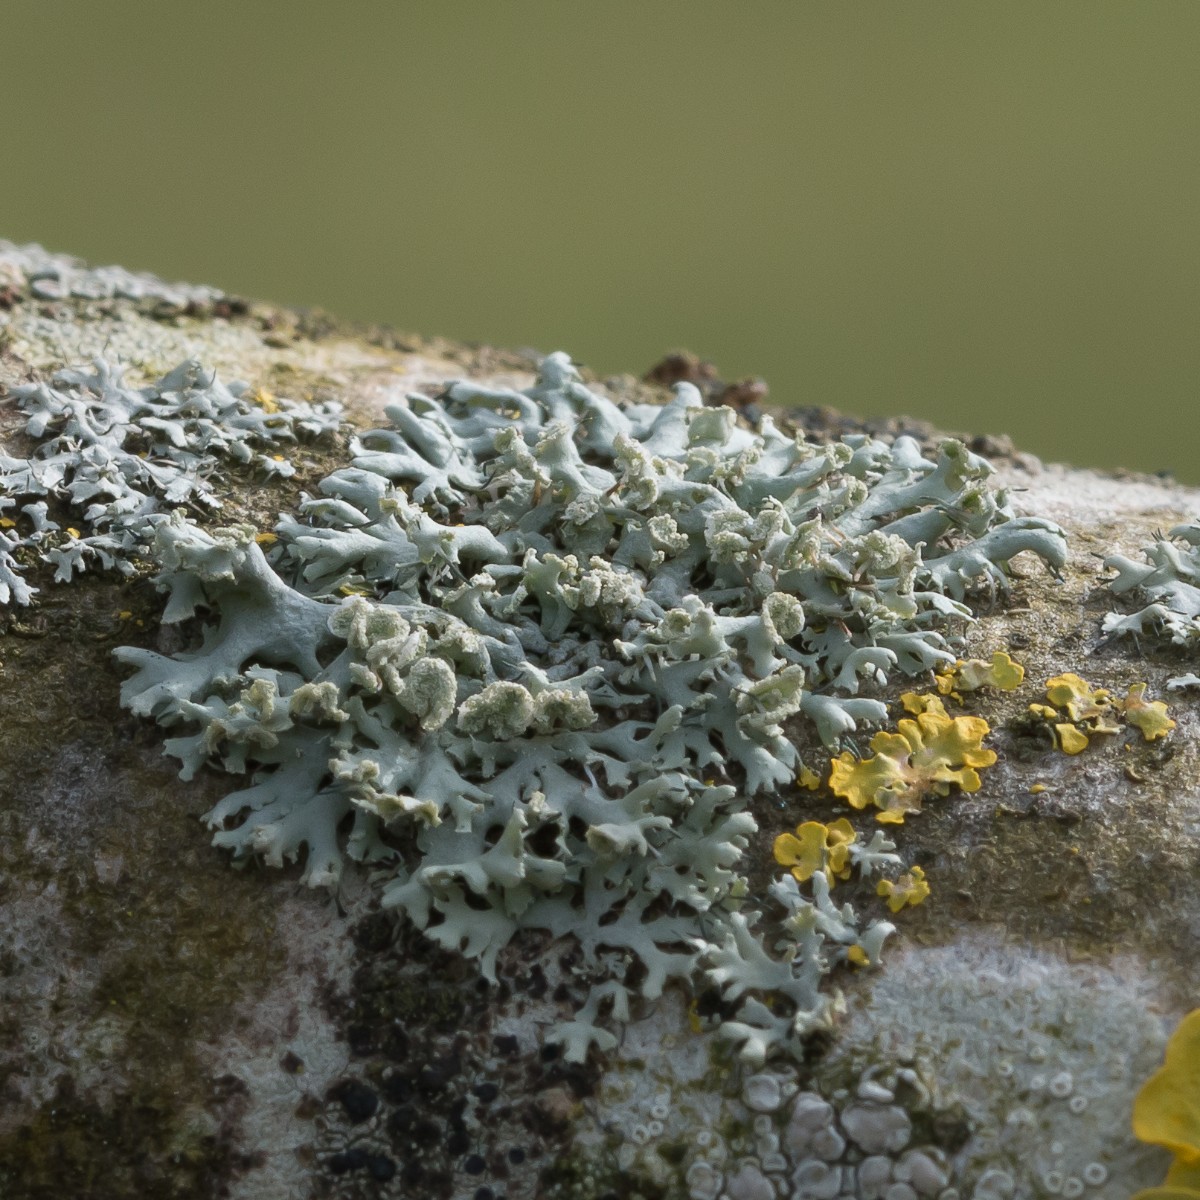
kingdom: Fungi
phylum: Ascomycota
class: Lecanoromycetes
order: Caliciales
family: Physciaceae
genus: Physcia
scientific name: Physcia tenella
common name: spæd rosetlav
